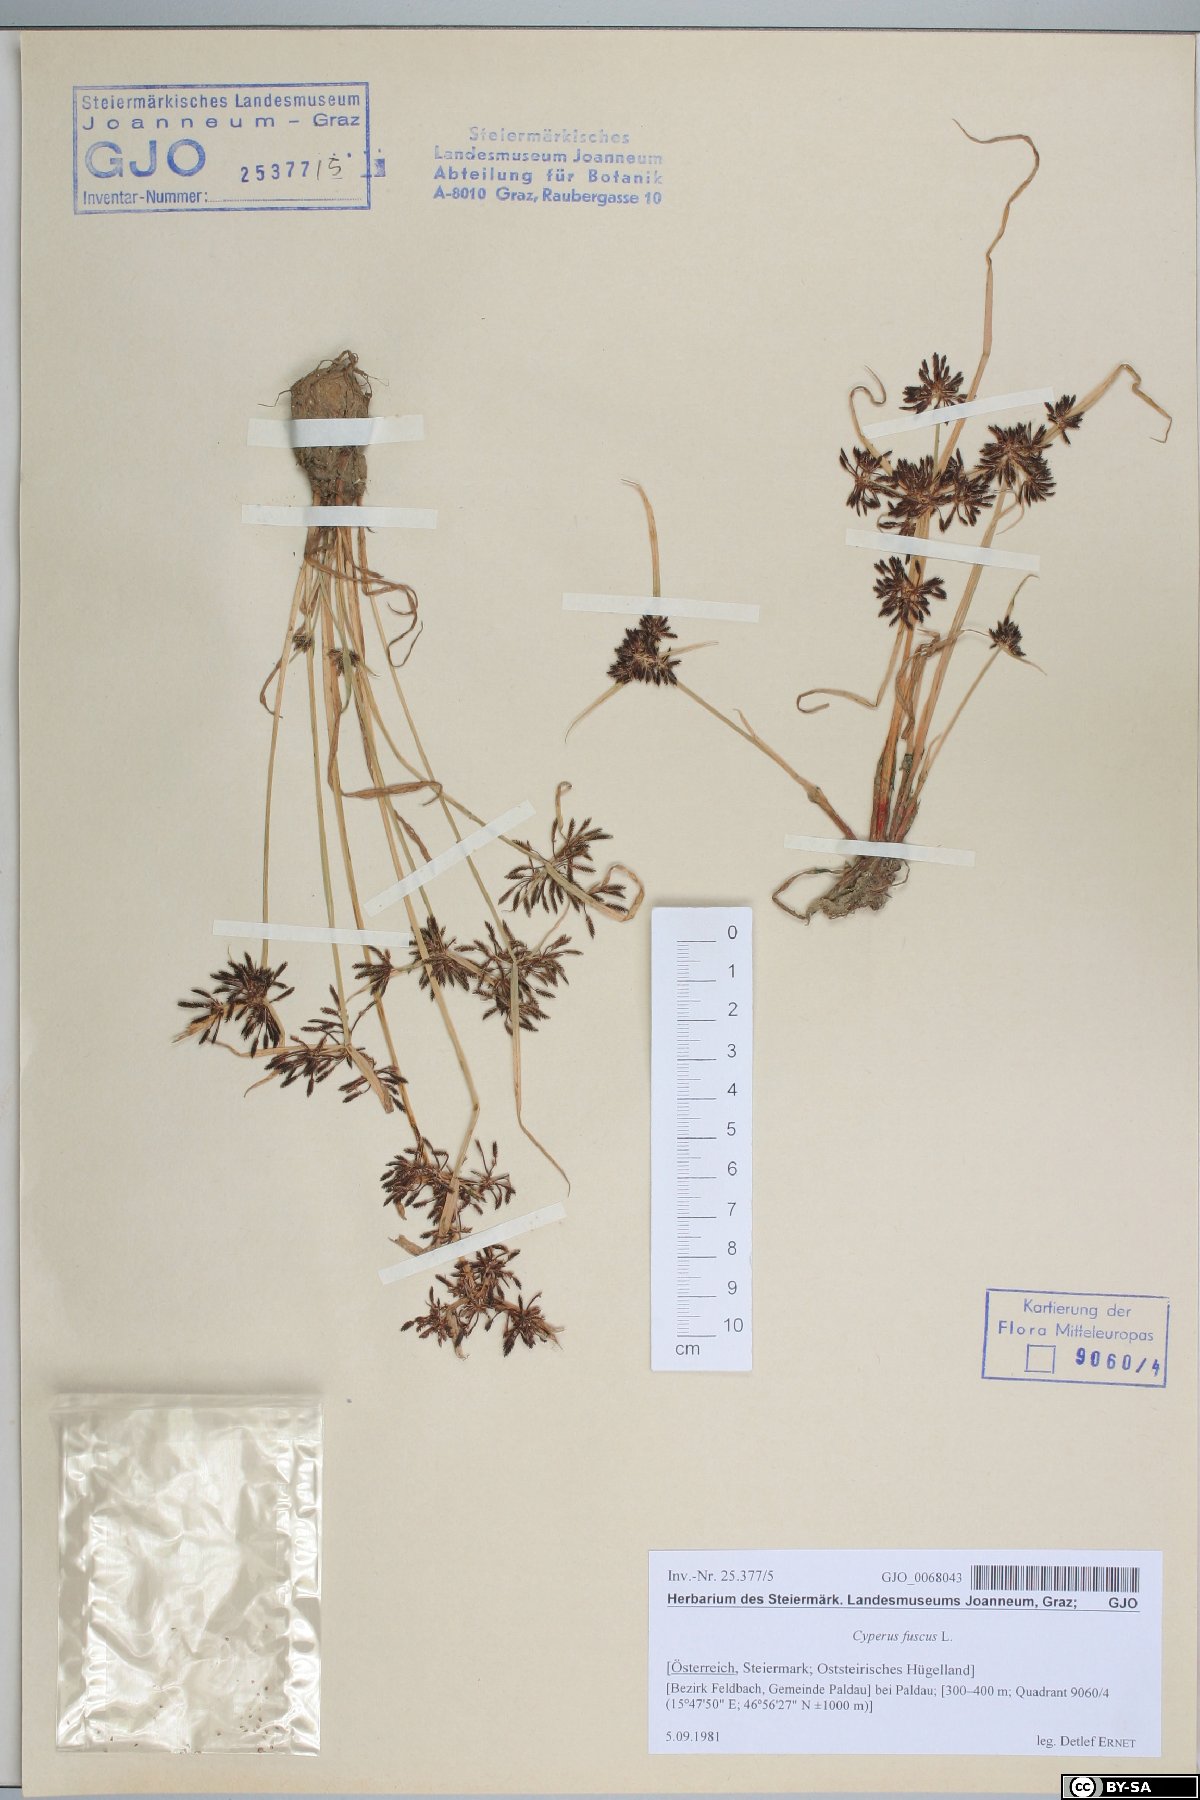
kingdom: Plantae
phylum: Tracheophyta
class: Liliopsida
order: Poales
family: Cyperaceae
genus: Cyperus
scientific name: Cyperus fuscus
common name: Brown galingale
